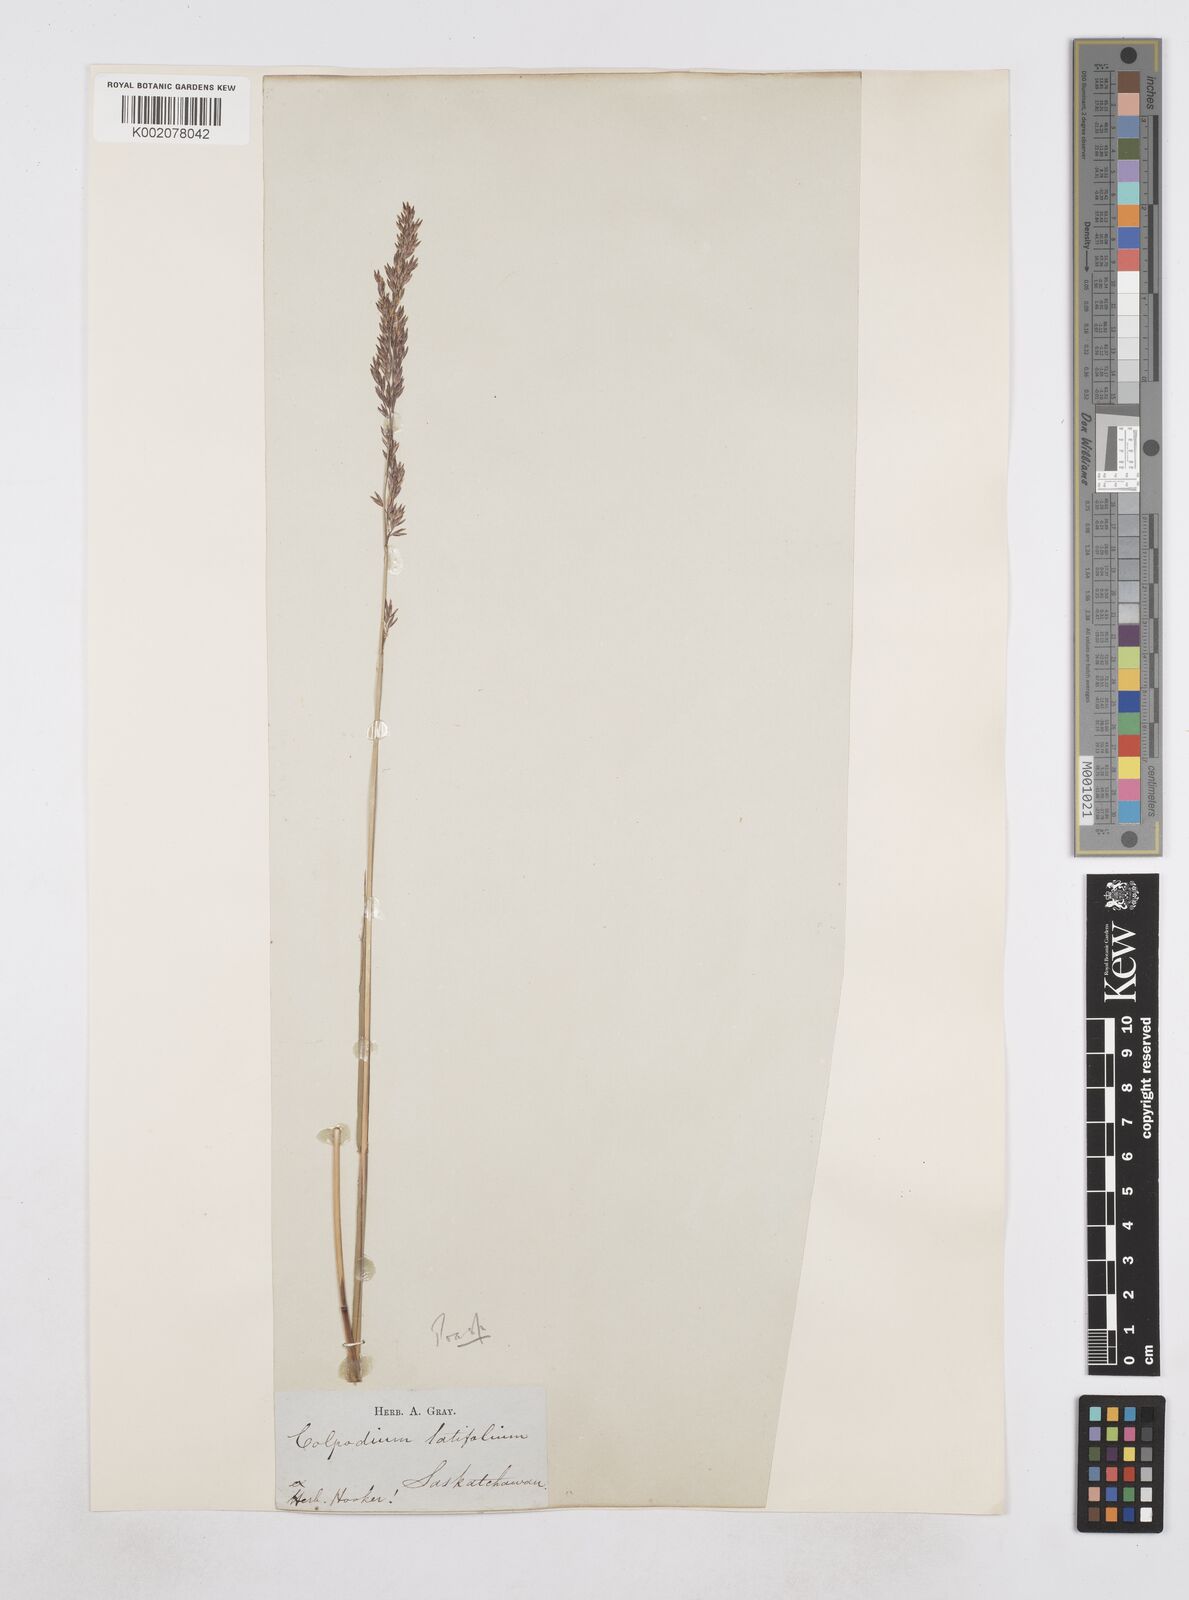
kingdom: Plantae
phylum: Tracheophyta
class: Liliopsida
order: Poales
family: Poaceae
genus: Poa
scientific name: Poa
